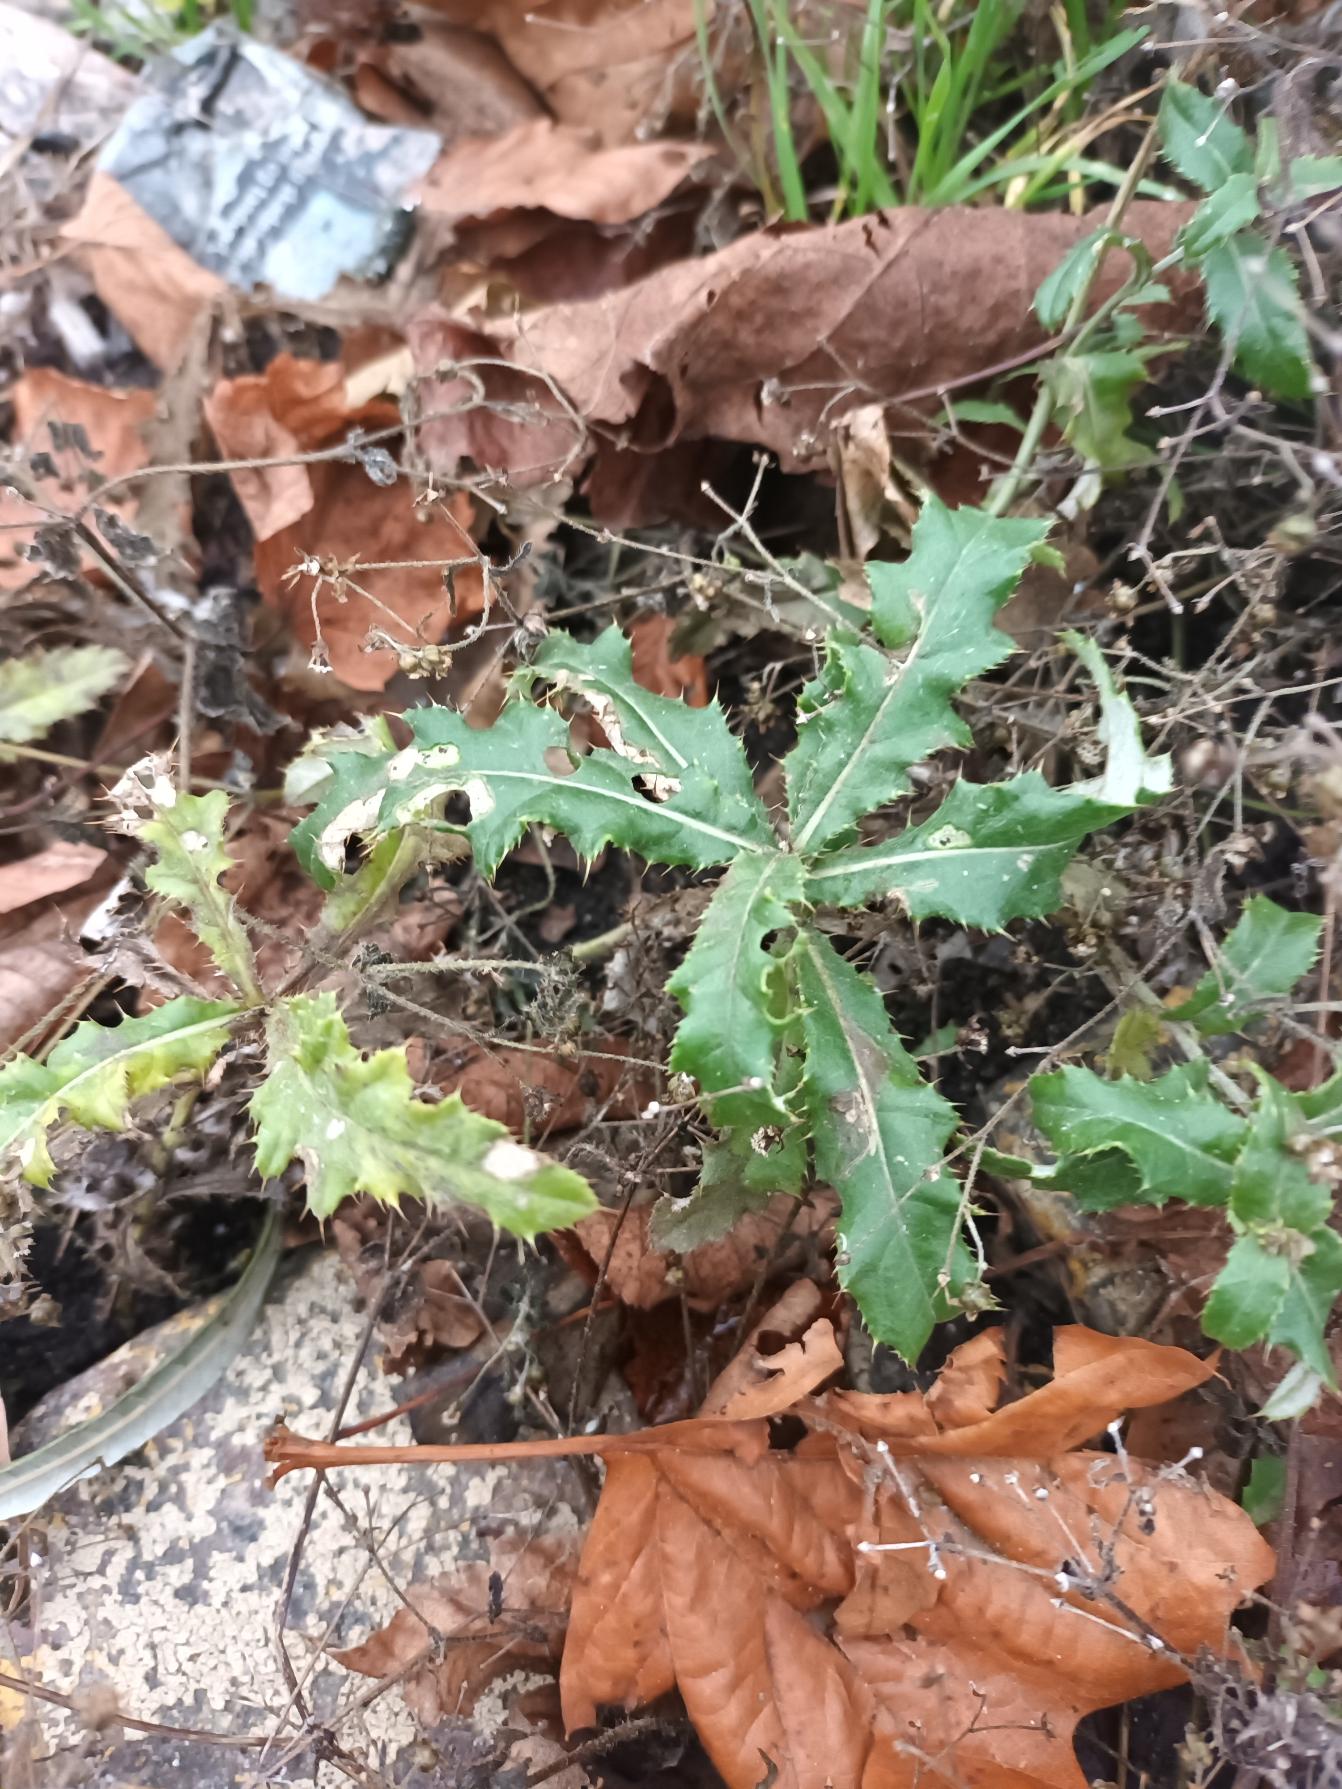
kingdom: Plantae
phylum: Tracheophyta
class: Magnoliopsida
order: Asterales
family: Asteraceae
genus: Cirsium
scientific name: Cirsium arvense
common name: Ager-tidsel
